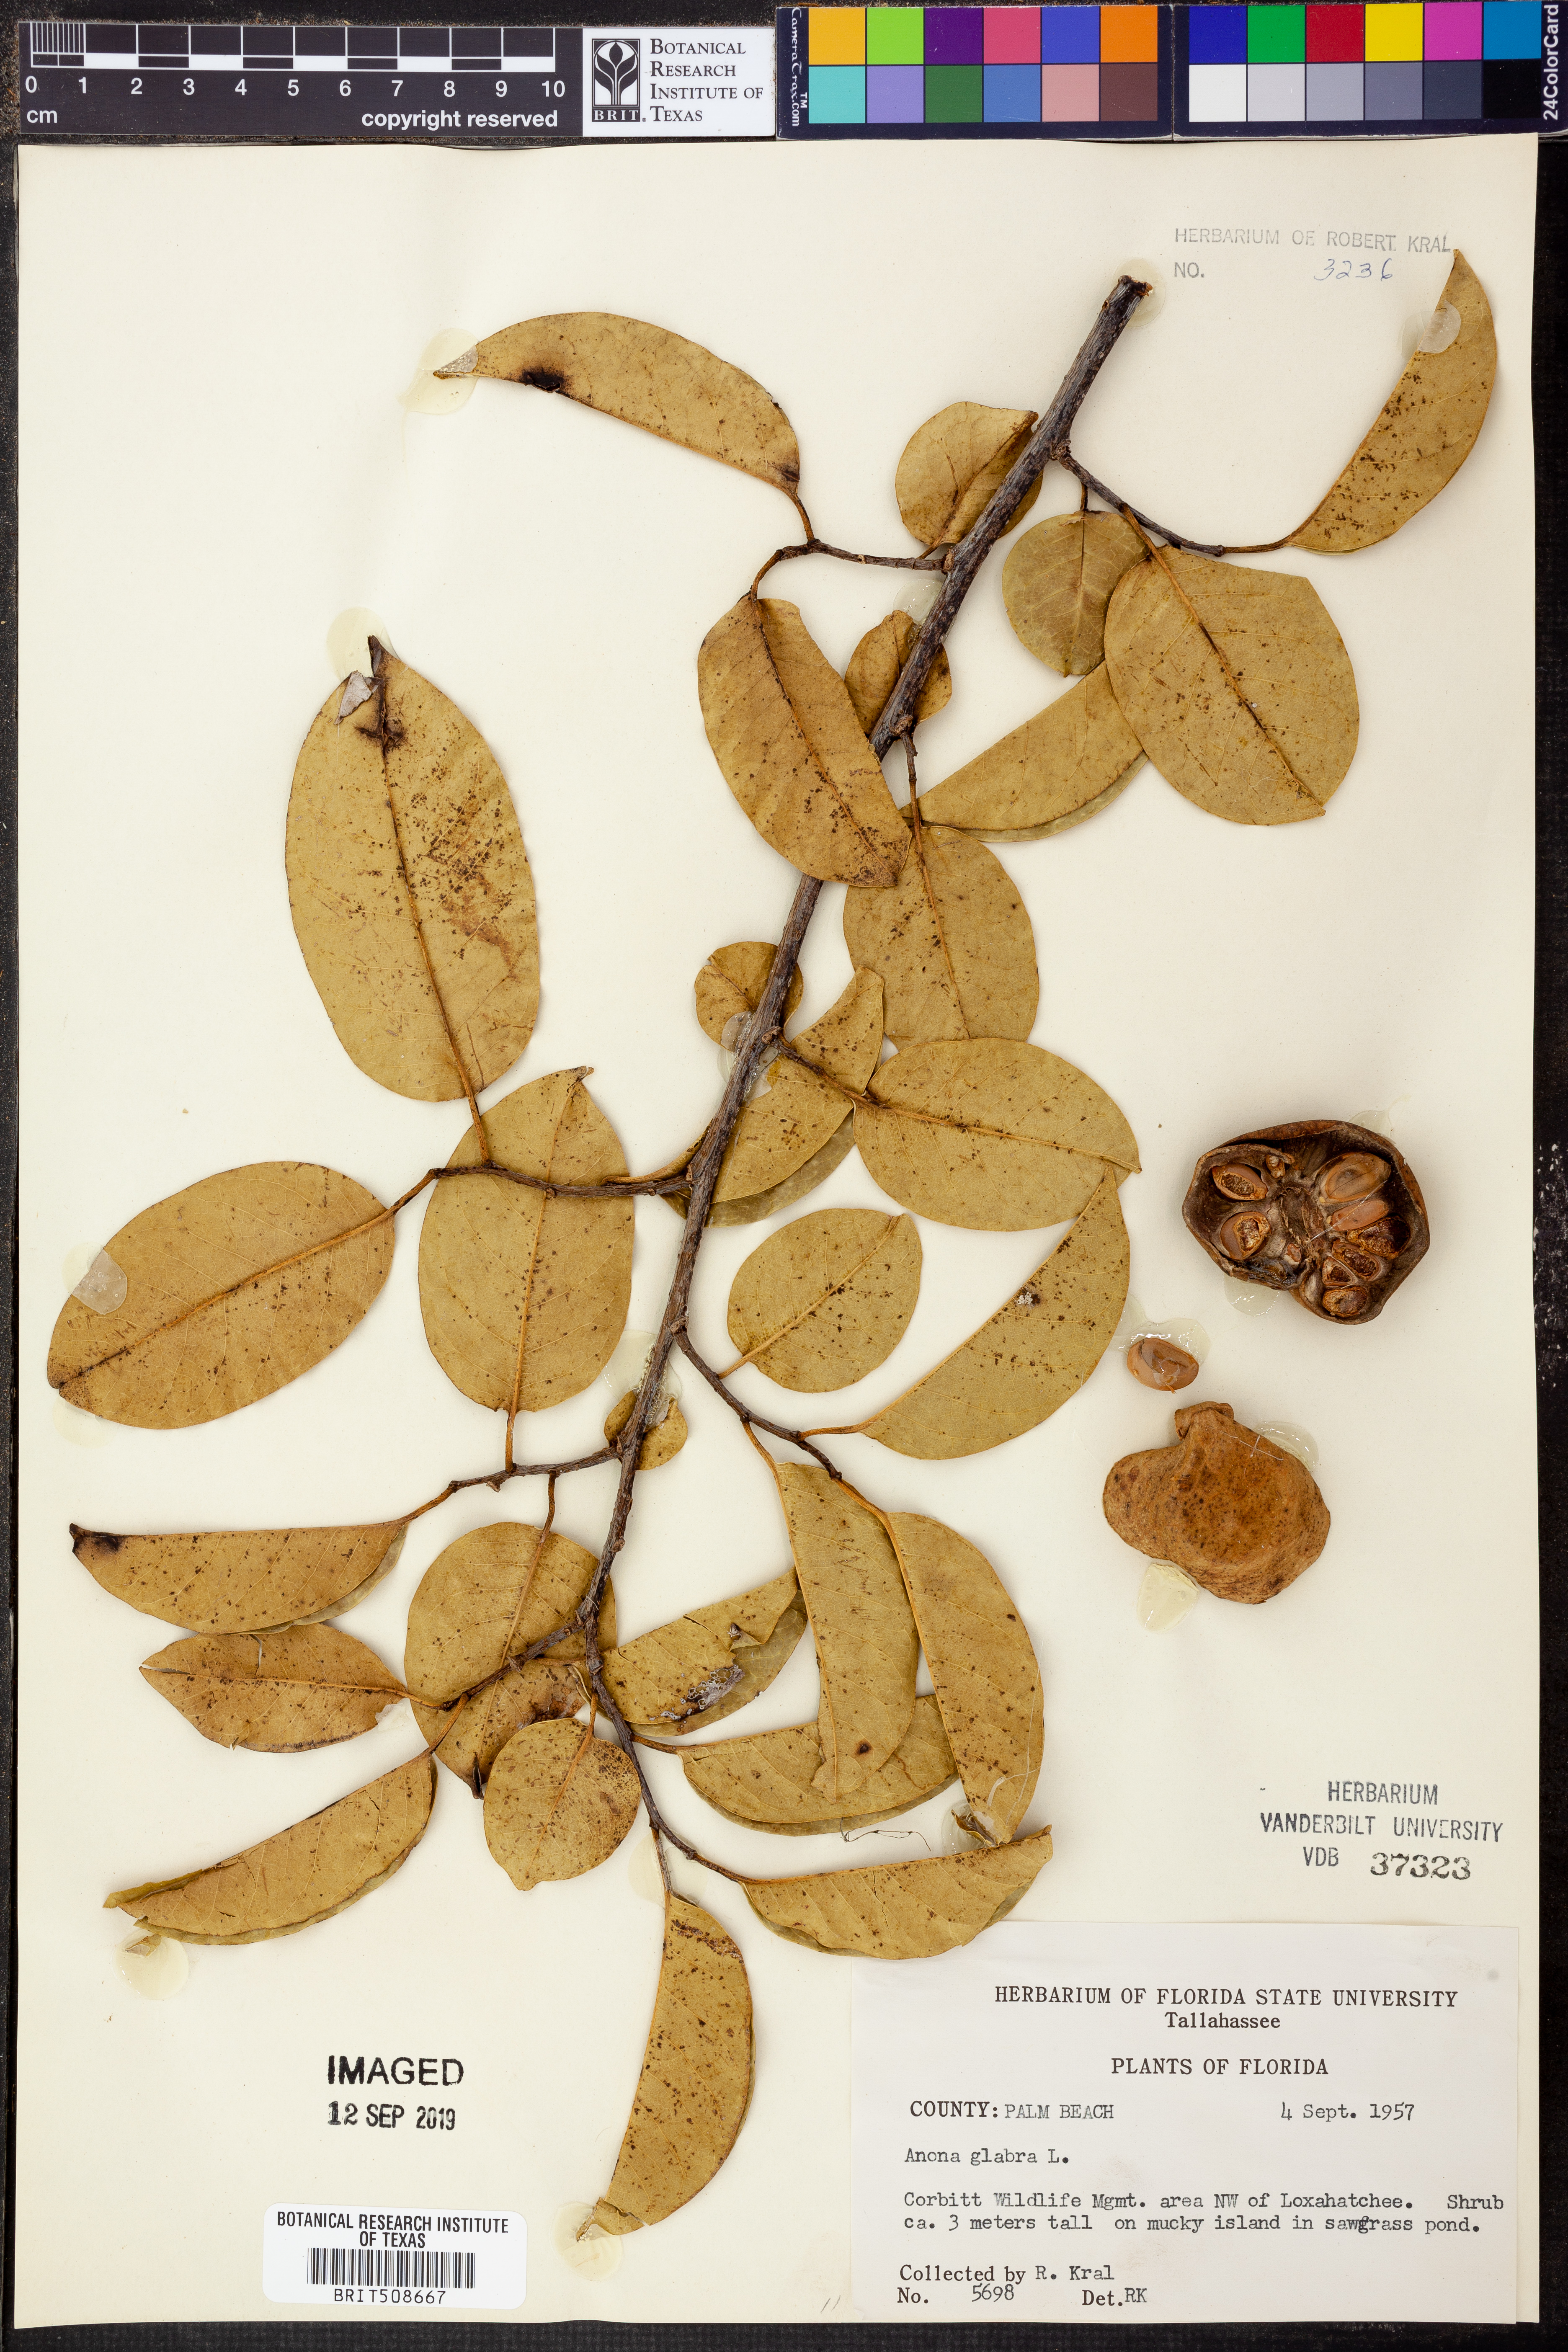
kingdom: Plantae
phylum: Tracheophyta
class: Magnoliopsida
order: Magnoliales
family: Annonaceae
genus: Annona
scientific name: Annona glabra
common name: Monkey apple
